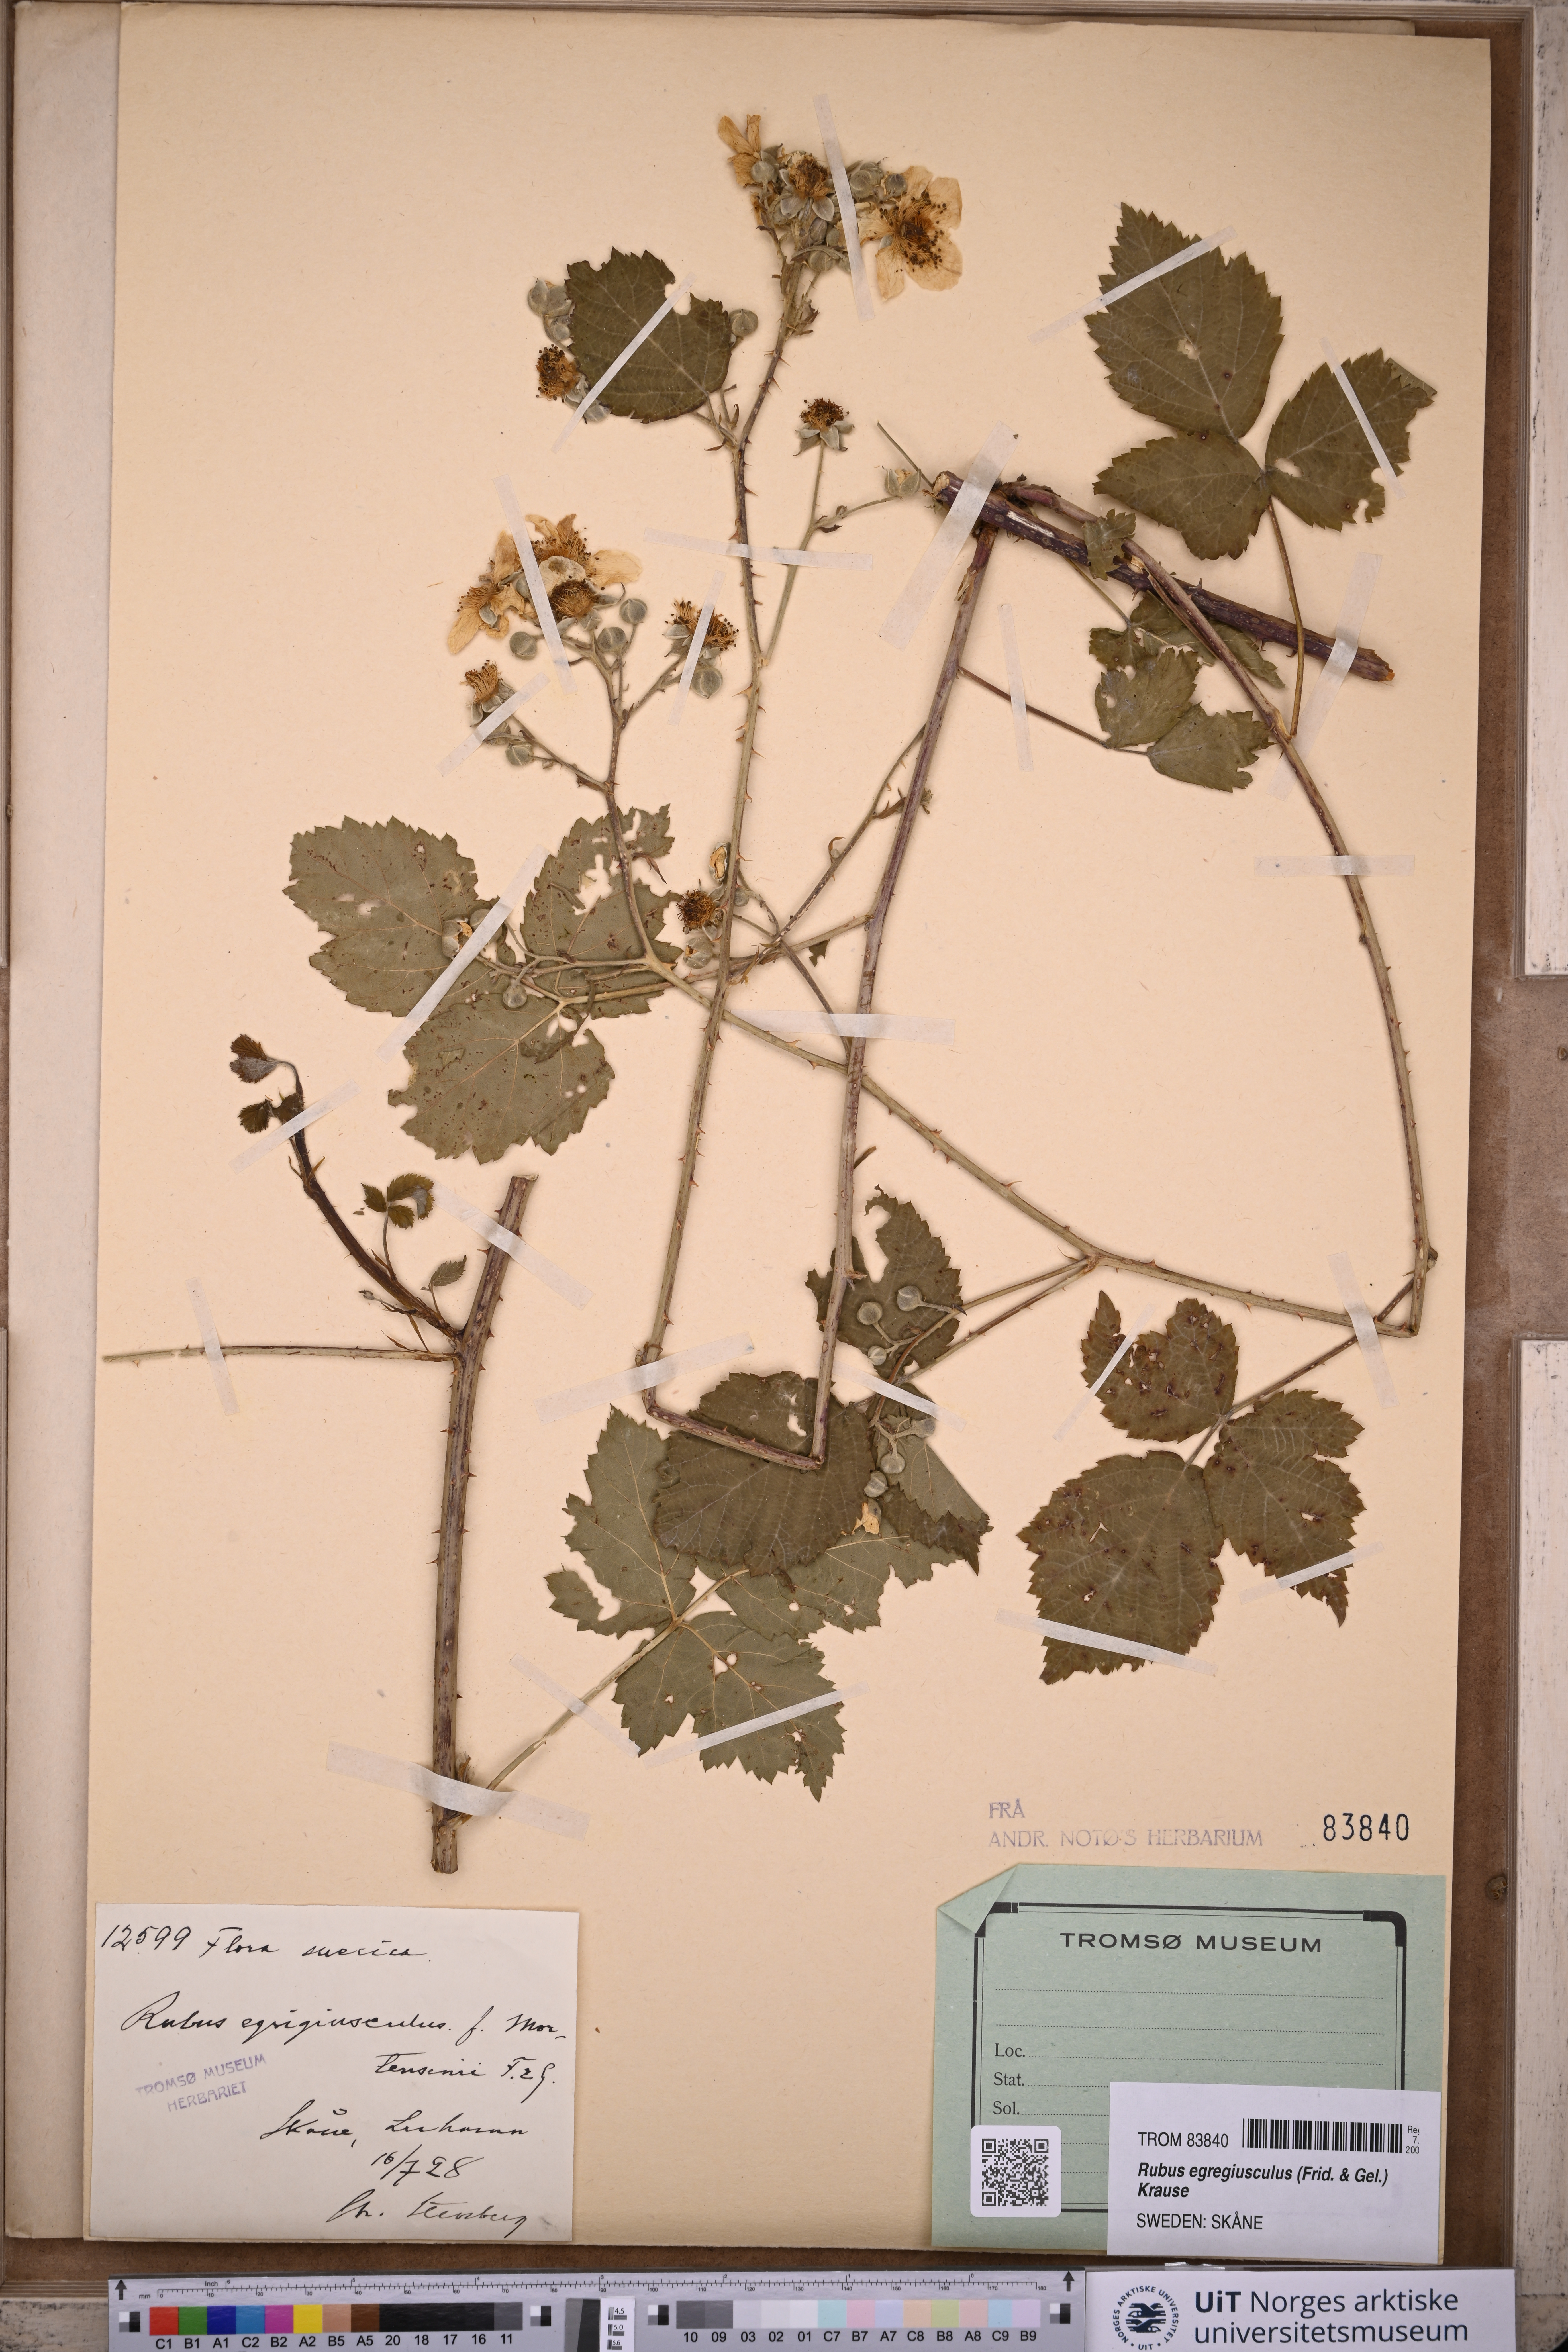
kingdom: Plantae
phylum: Tracheophyta
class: Magnoliopsida
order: Rosales
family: Rosaceae
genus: Rubus
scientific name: Rubus egregiusculus
